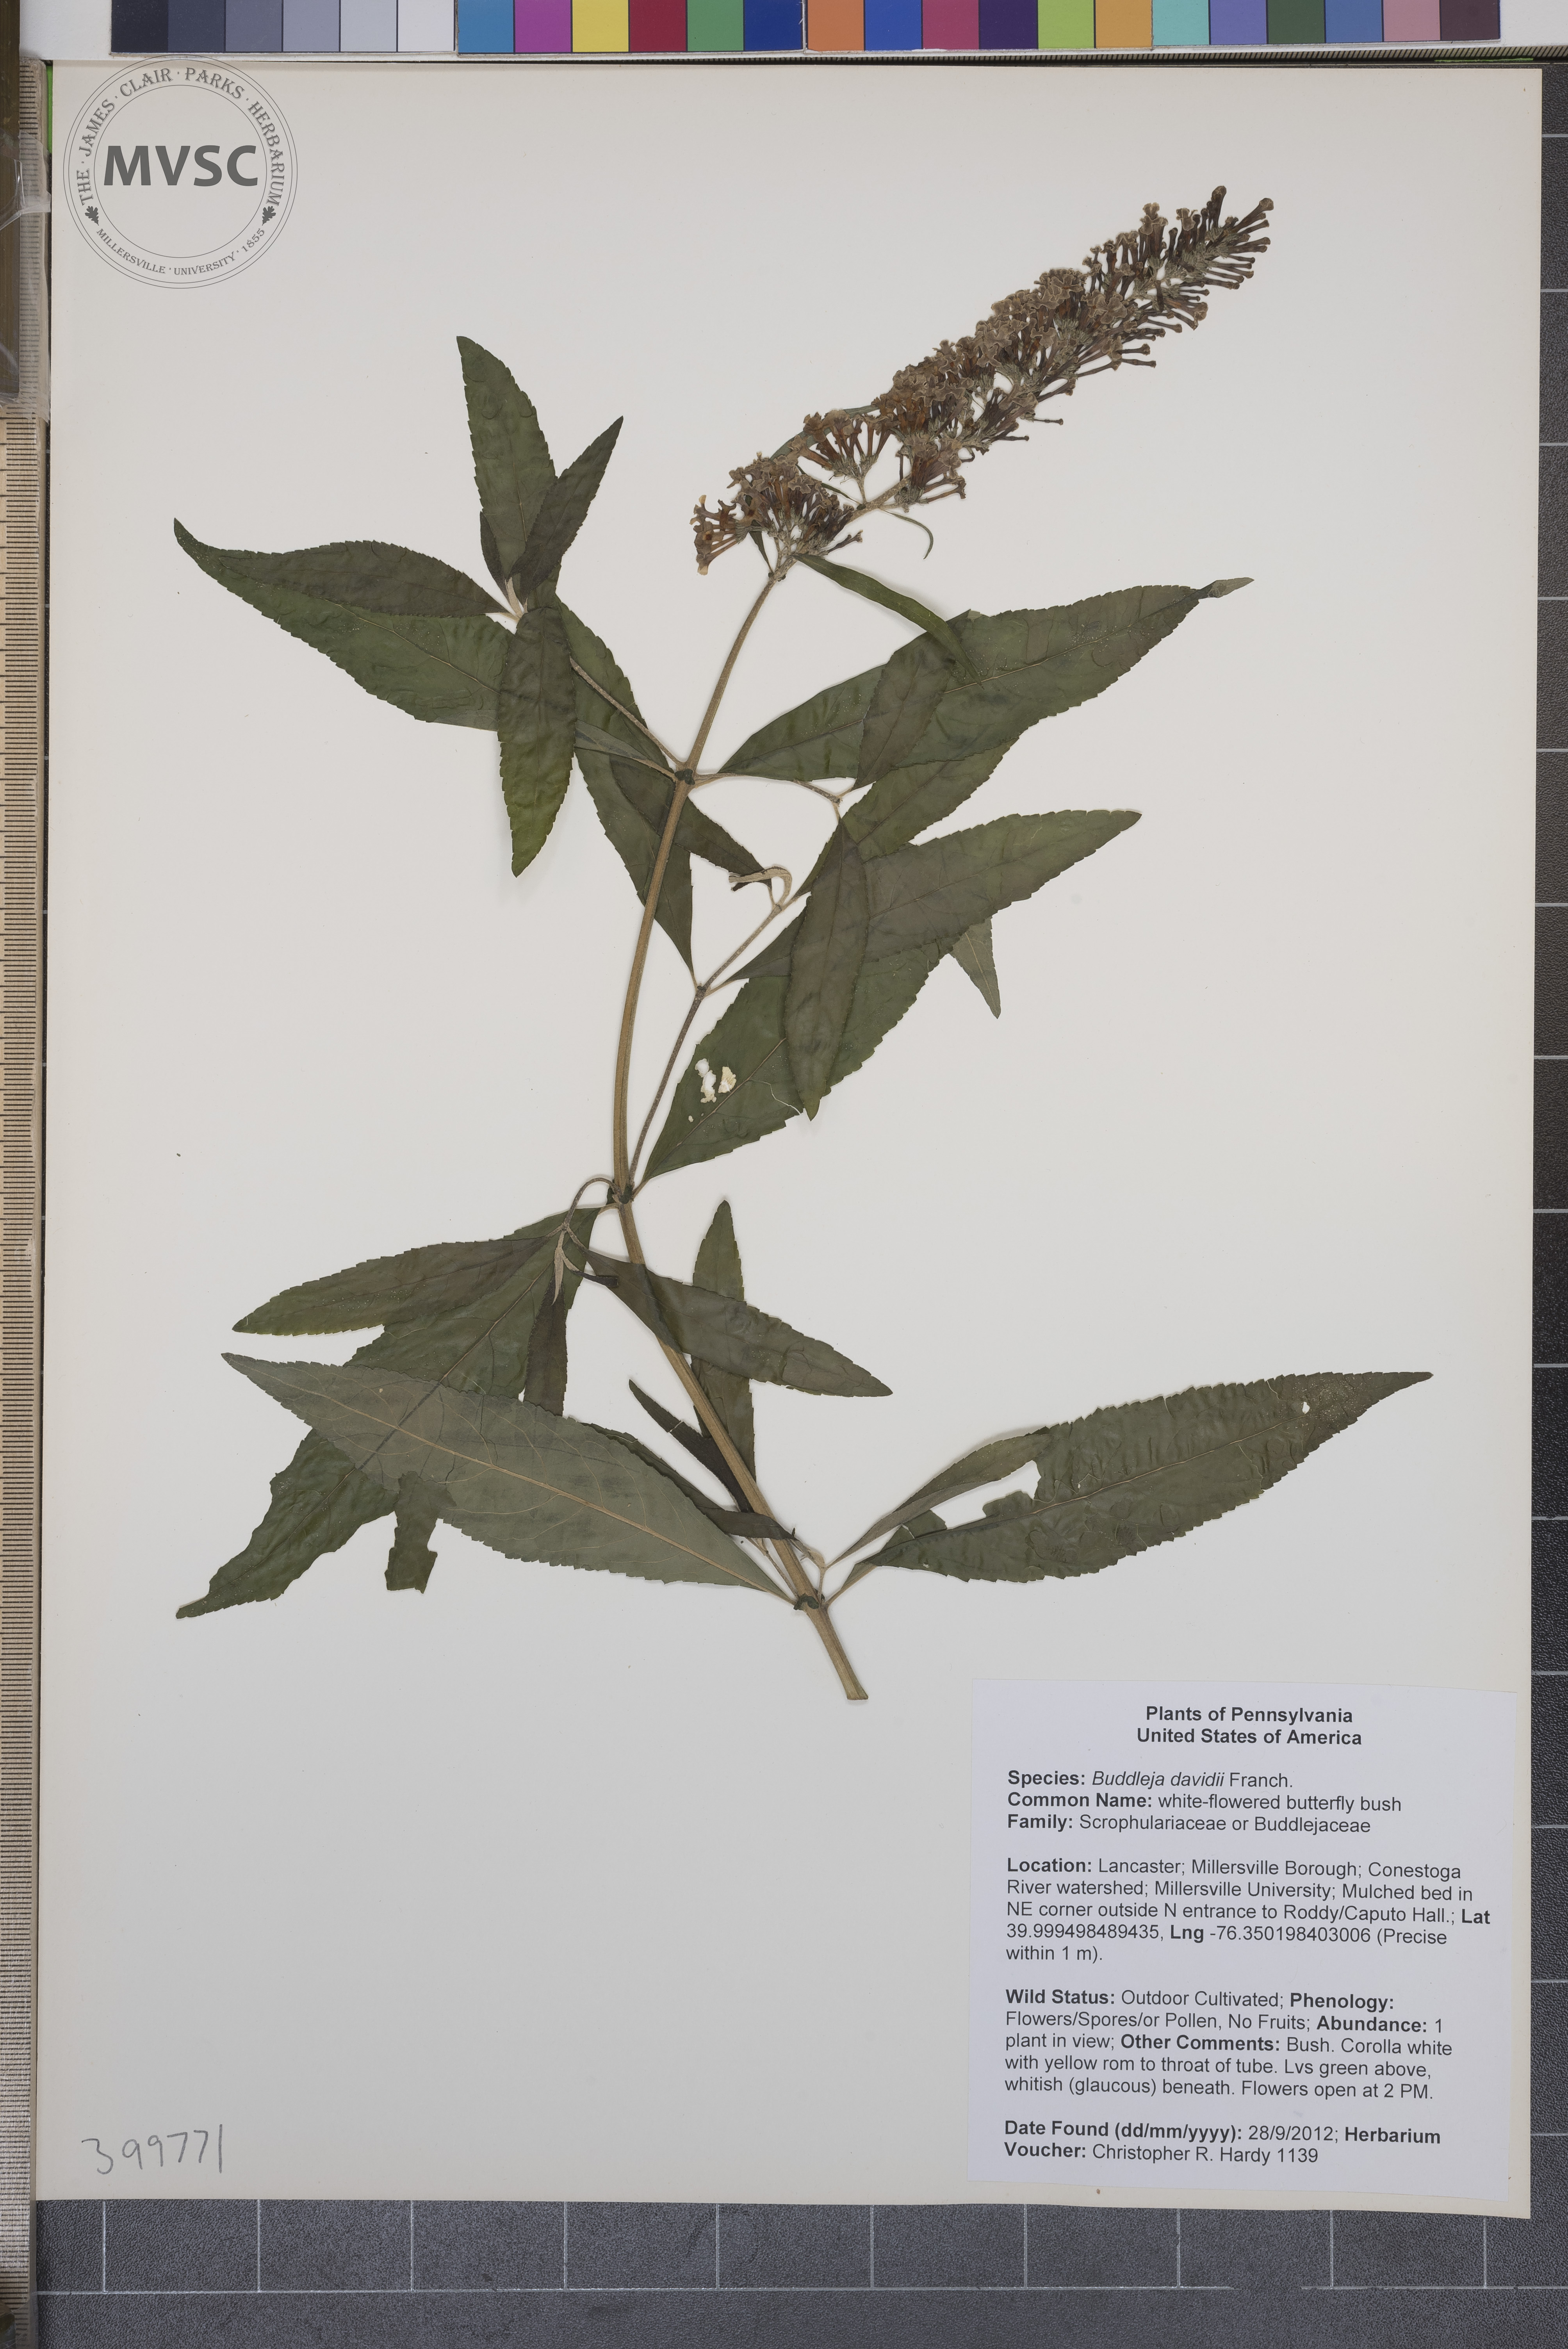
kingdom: Plantae
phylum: Tracheophyta
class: Magnoliopsida
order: Lamiales
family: Scrophulariaceae
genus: Buddleja
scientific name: Buddleja davidii
